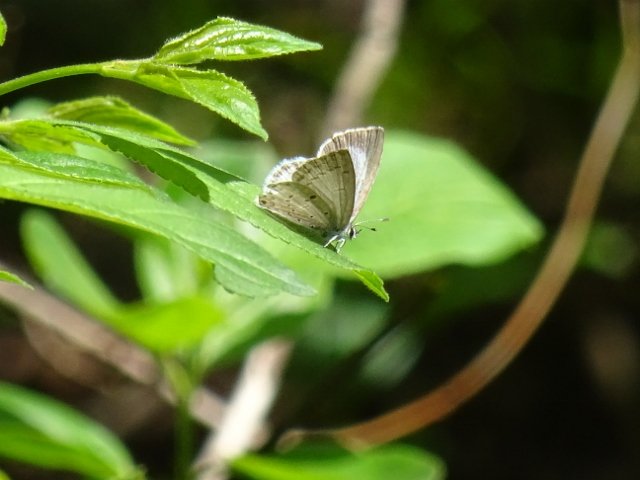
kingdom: Animalia
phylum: Arthropoda
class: Insecta
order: Lepidoptera
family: Lycaenidae
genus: Celastrina
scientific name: Celastrina
